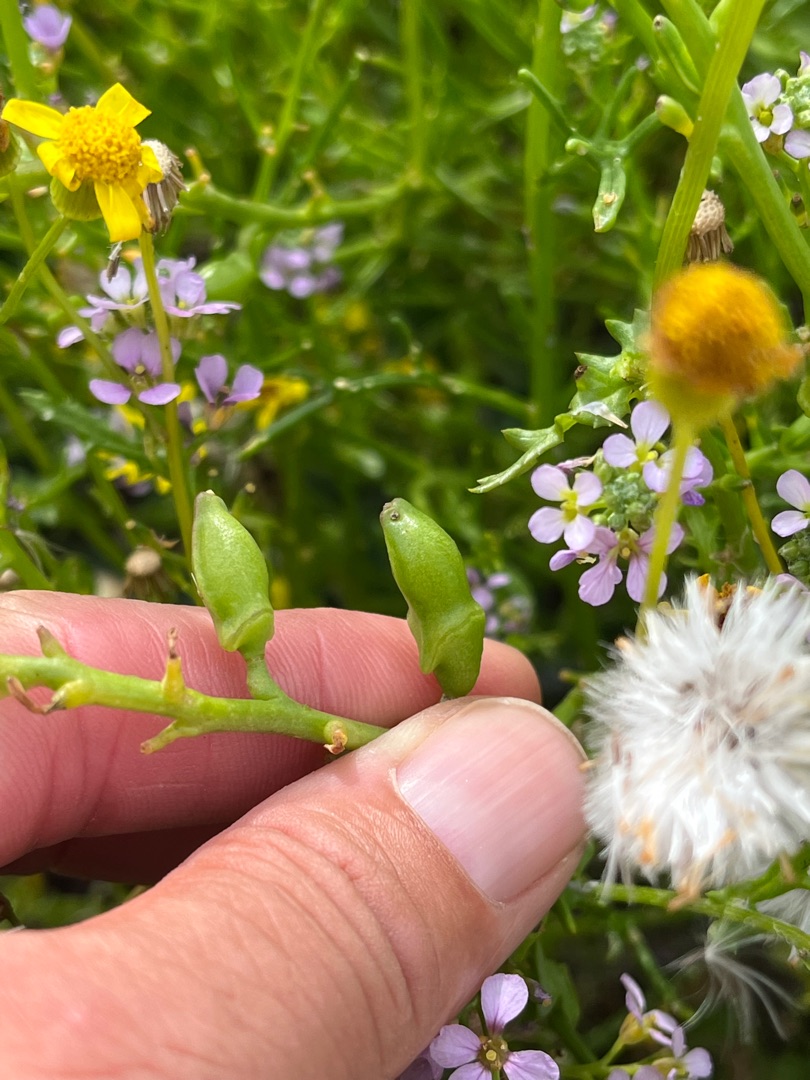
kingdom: Plantae
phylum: Tracheophyta
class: Magnoliopsida
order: Brassicales
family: Brassicaceae
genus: Cakile
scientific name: Cakile maritima
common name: Strandsennep
